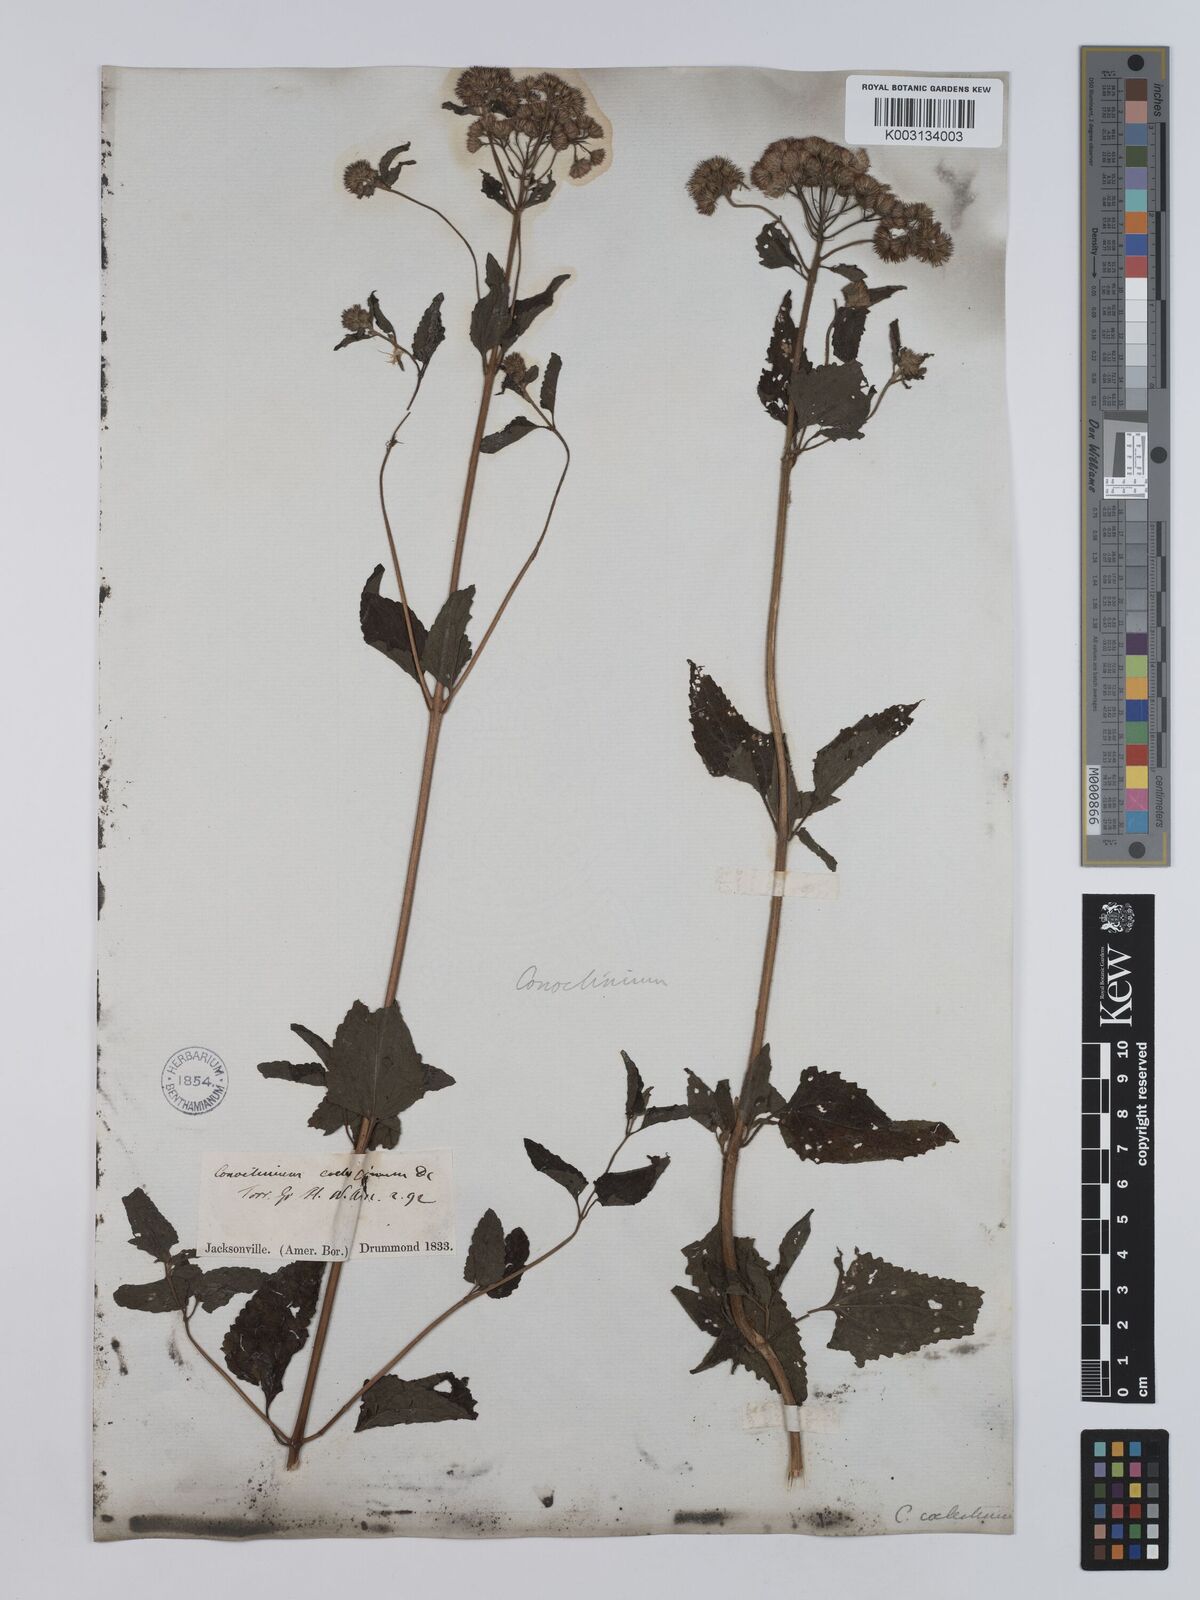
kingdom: Plantae
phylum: Tracheophyta
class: Magnoliopsida
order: Asterales
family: Asteraceae
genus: Conoclinium
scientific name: Conoclinium coelestinum
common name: Blue mistflower
